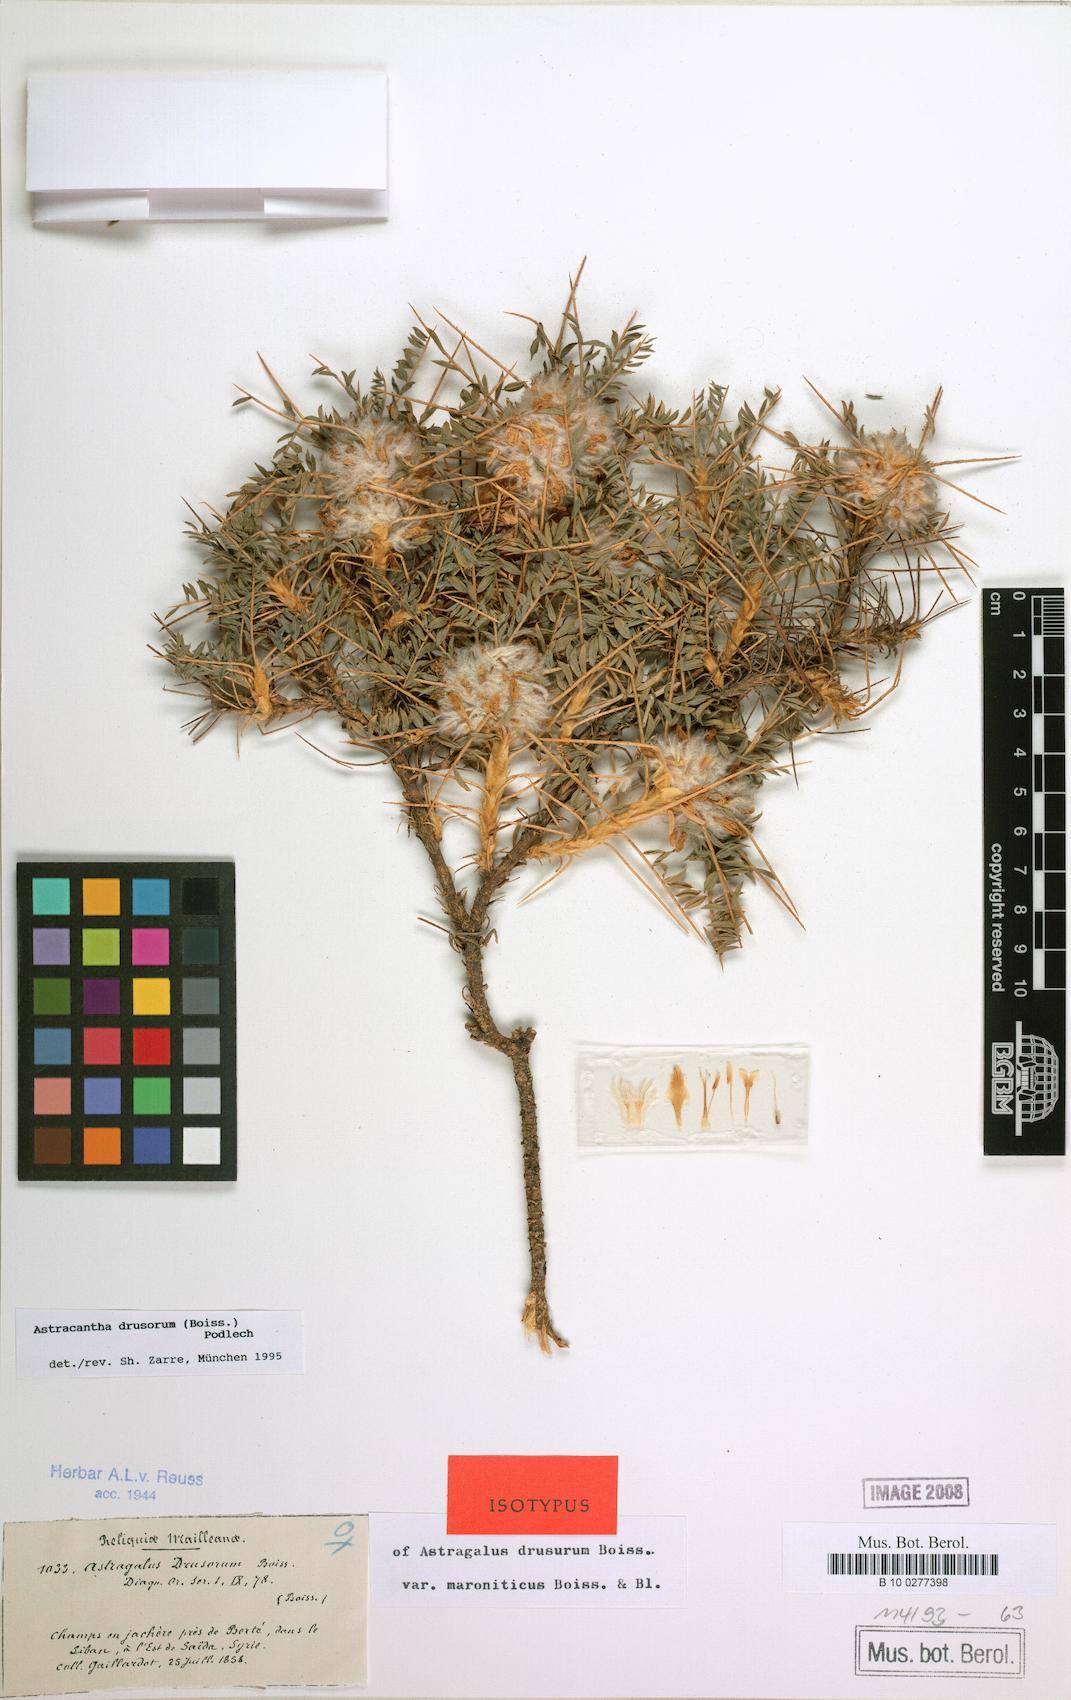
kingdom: Plantae
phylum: Tracheophyta
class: Magnoliopsida
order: Fabales
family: Fabaceae
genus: Astragalus
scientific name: Astragalus drusorum
